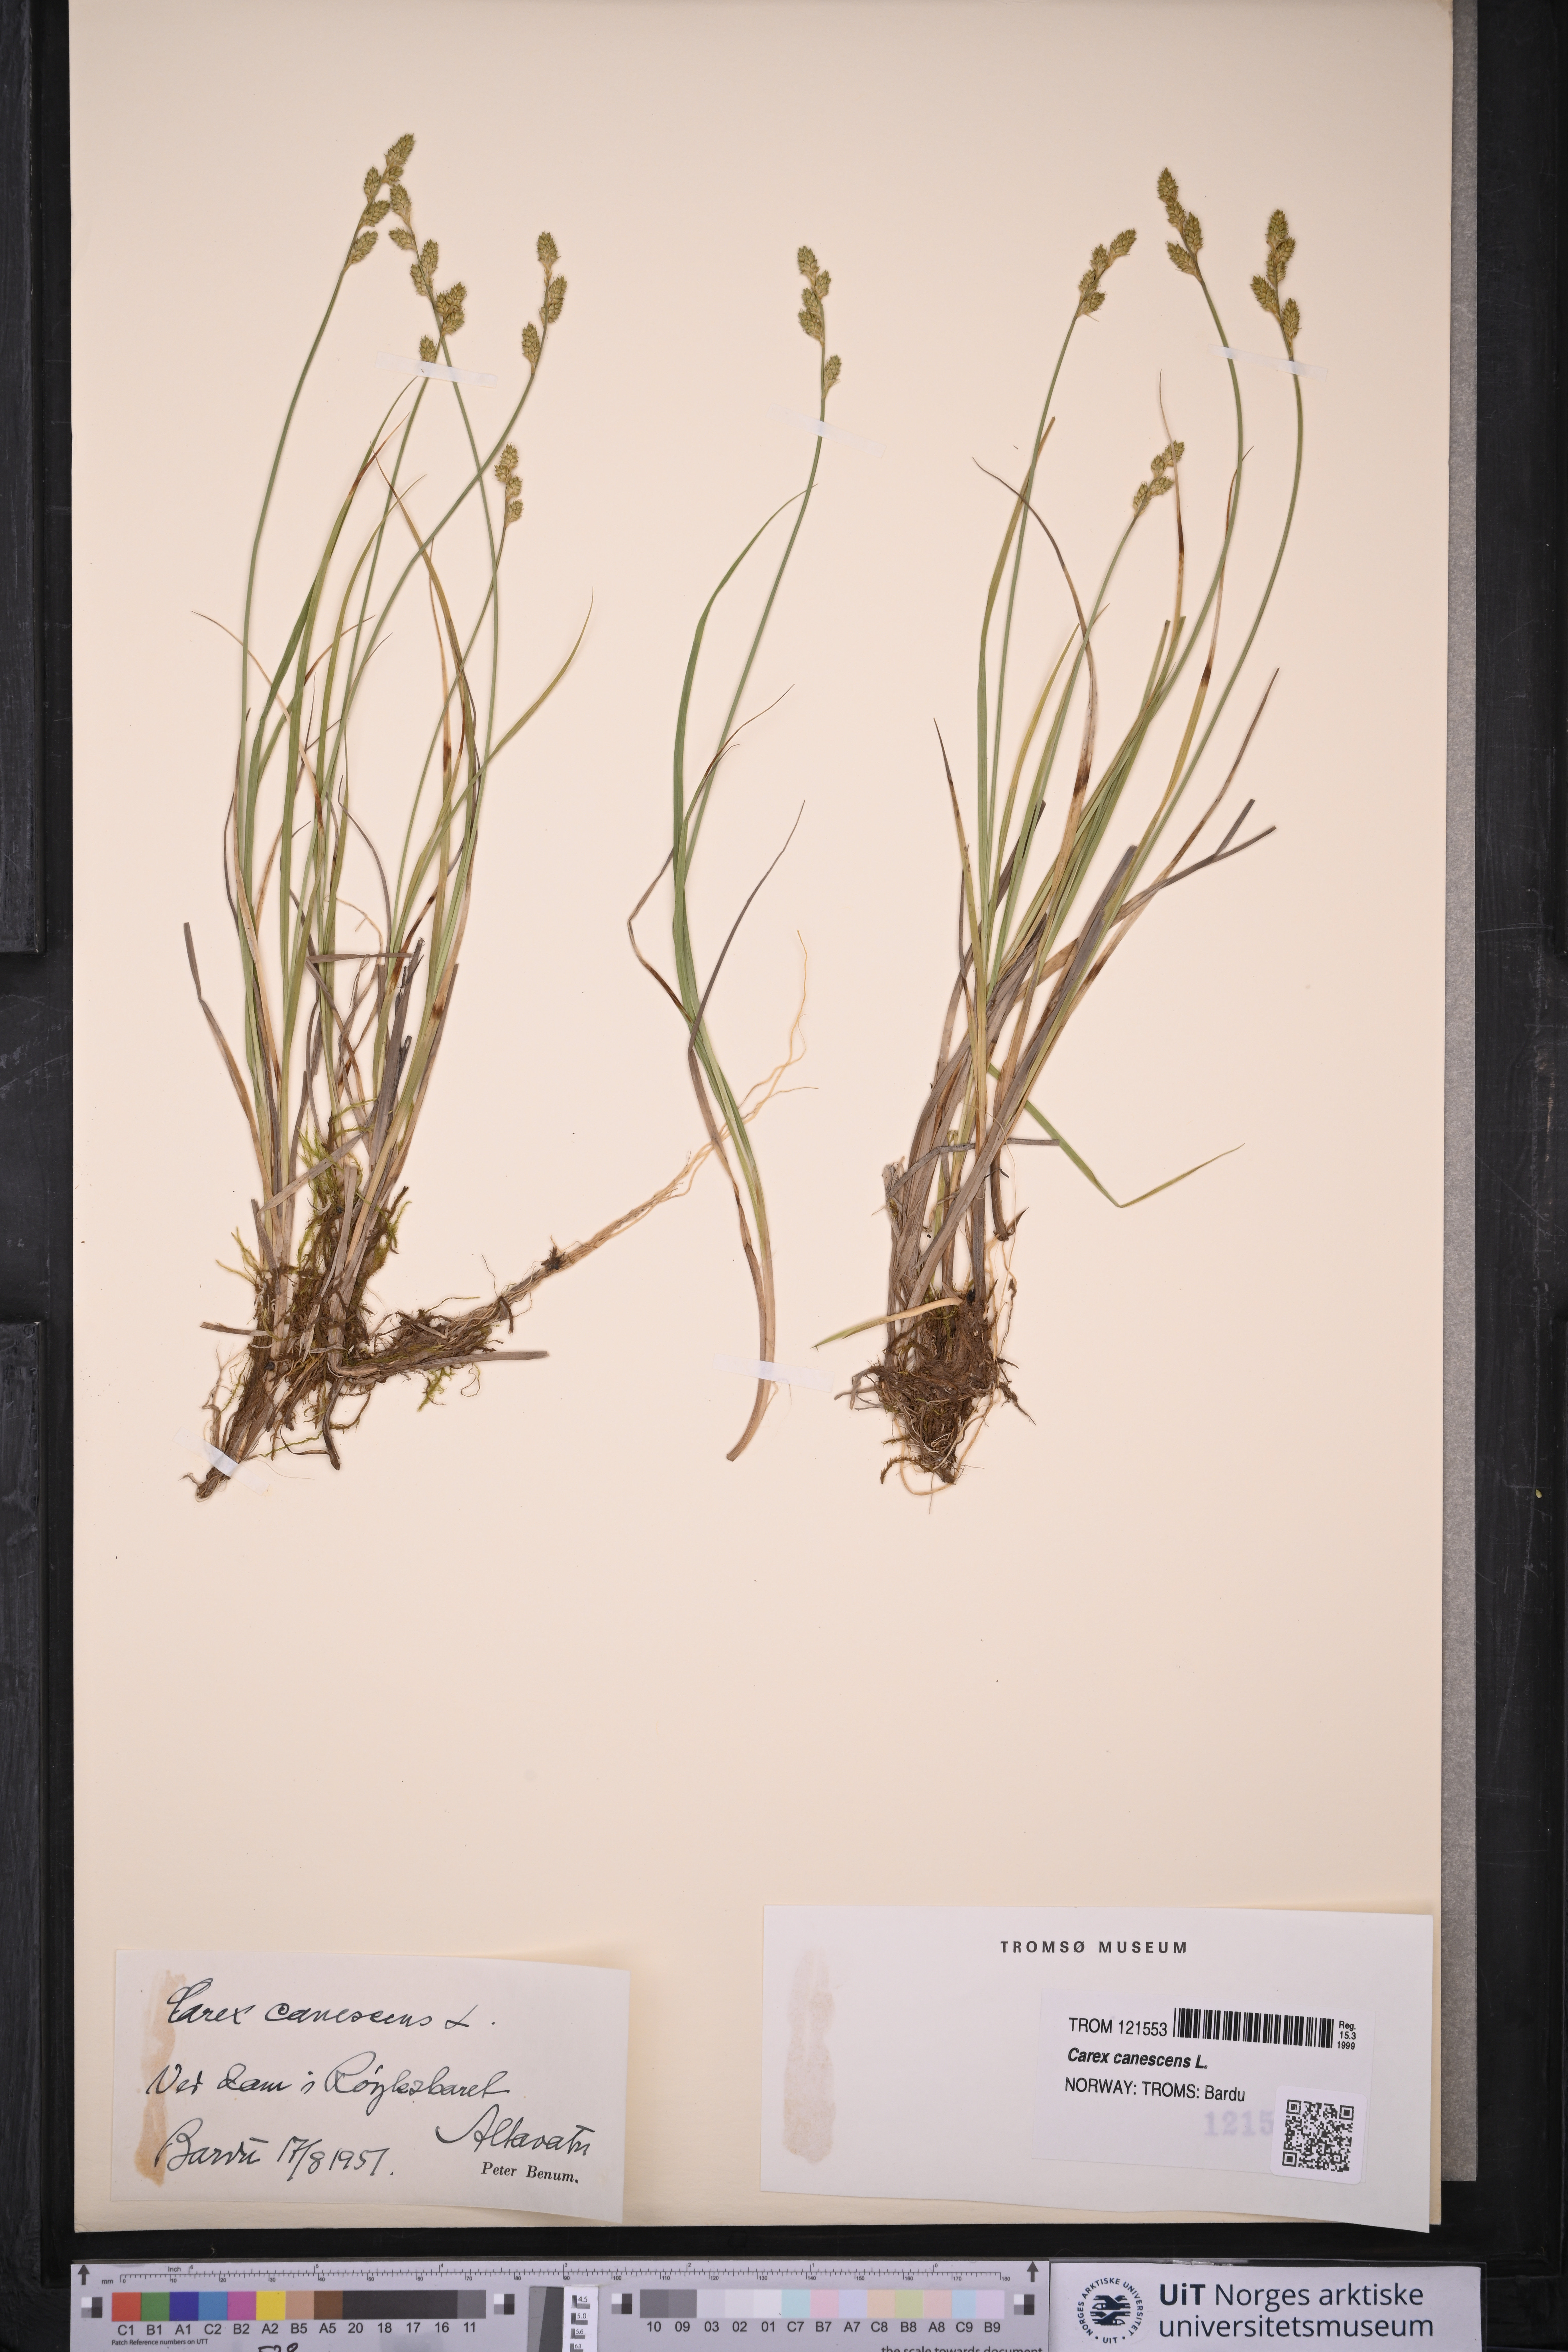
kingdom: Plantae
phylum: Tracheophyta
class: Liliopsida
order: Poales
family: Cyperaceae
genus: Carex
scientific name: Carex canescens
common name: White sedge
